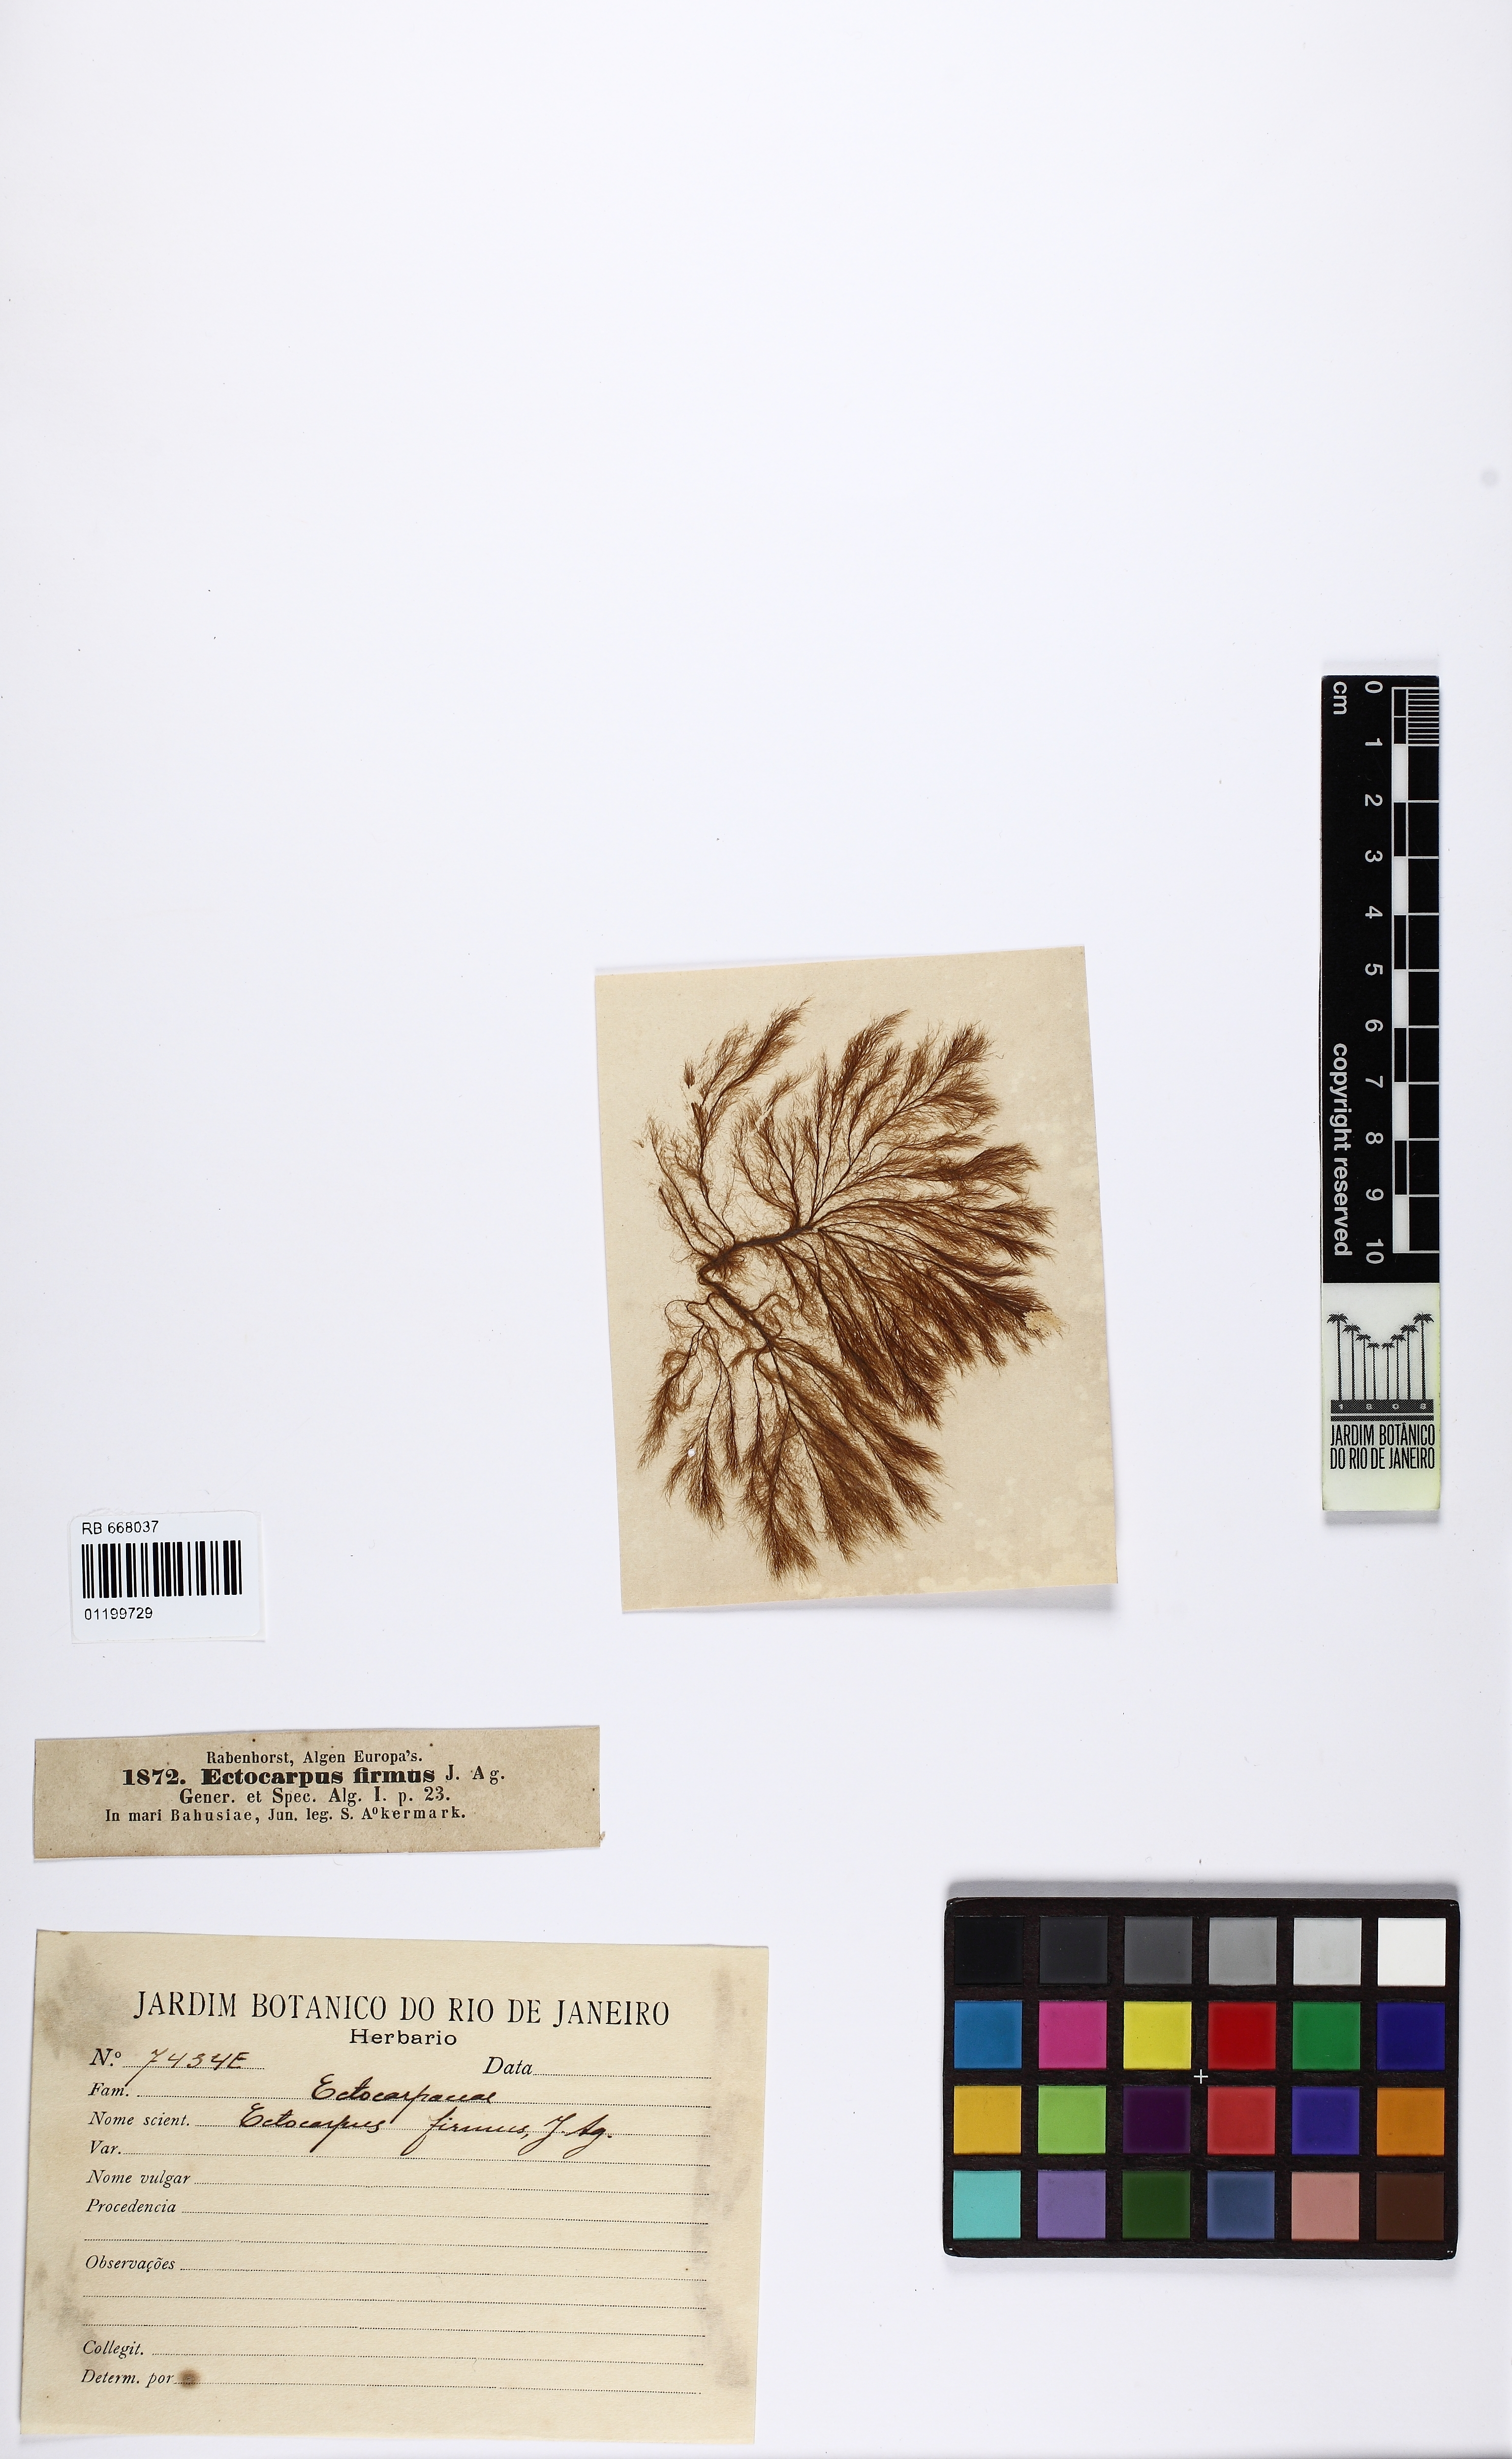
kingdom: Chromista
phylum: Ochrophyta
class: Phaeophyceae
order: Ectocarpales
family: Acinetosporaceae
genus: Pylaiella
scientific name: Pylaiella littoralis
